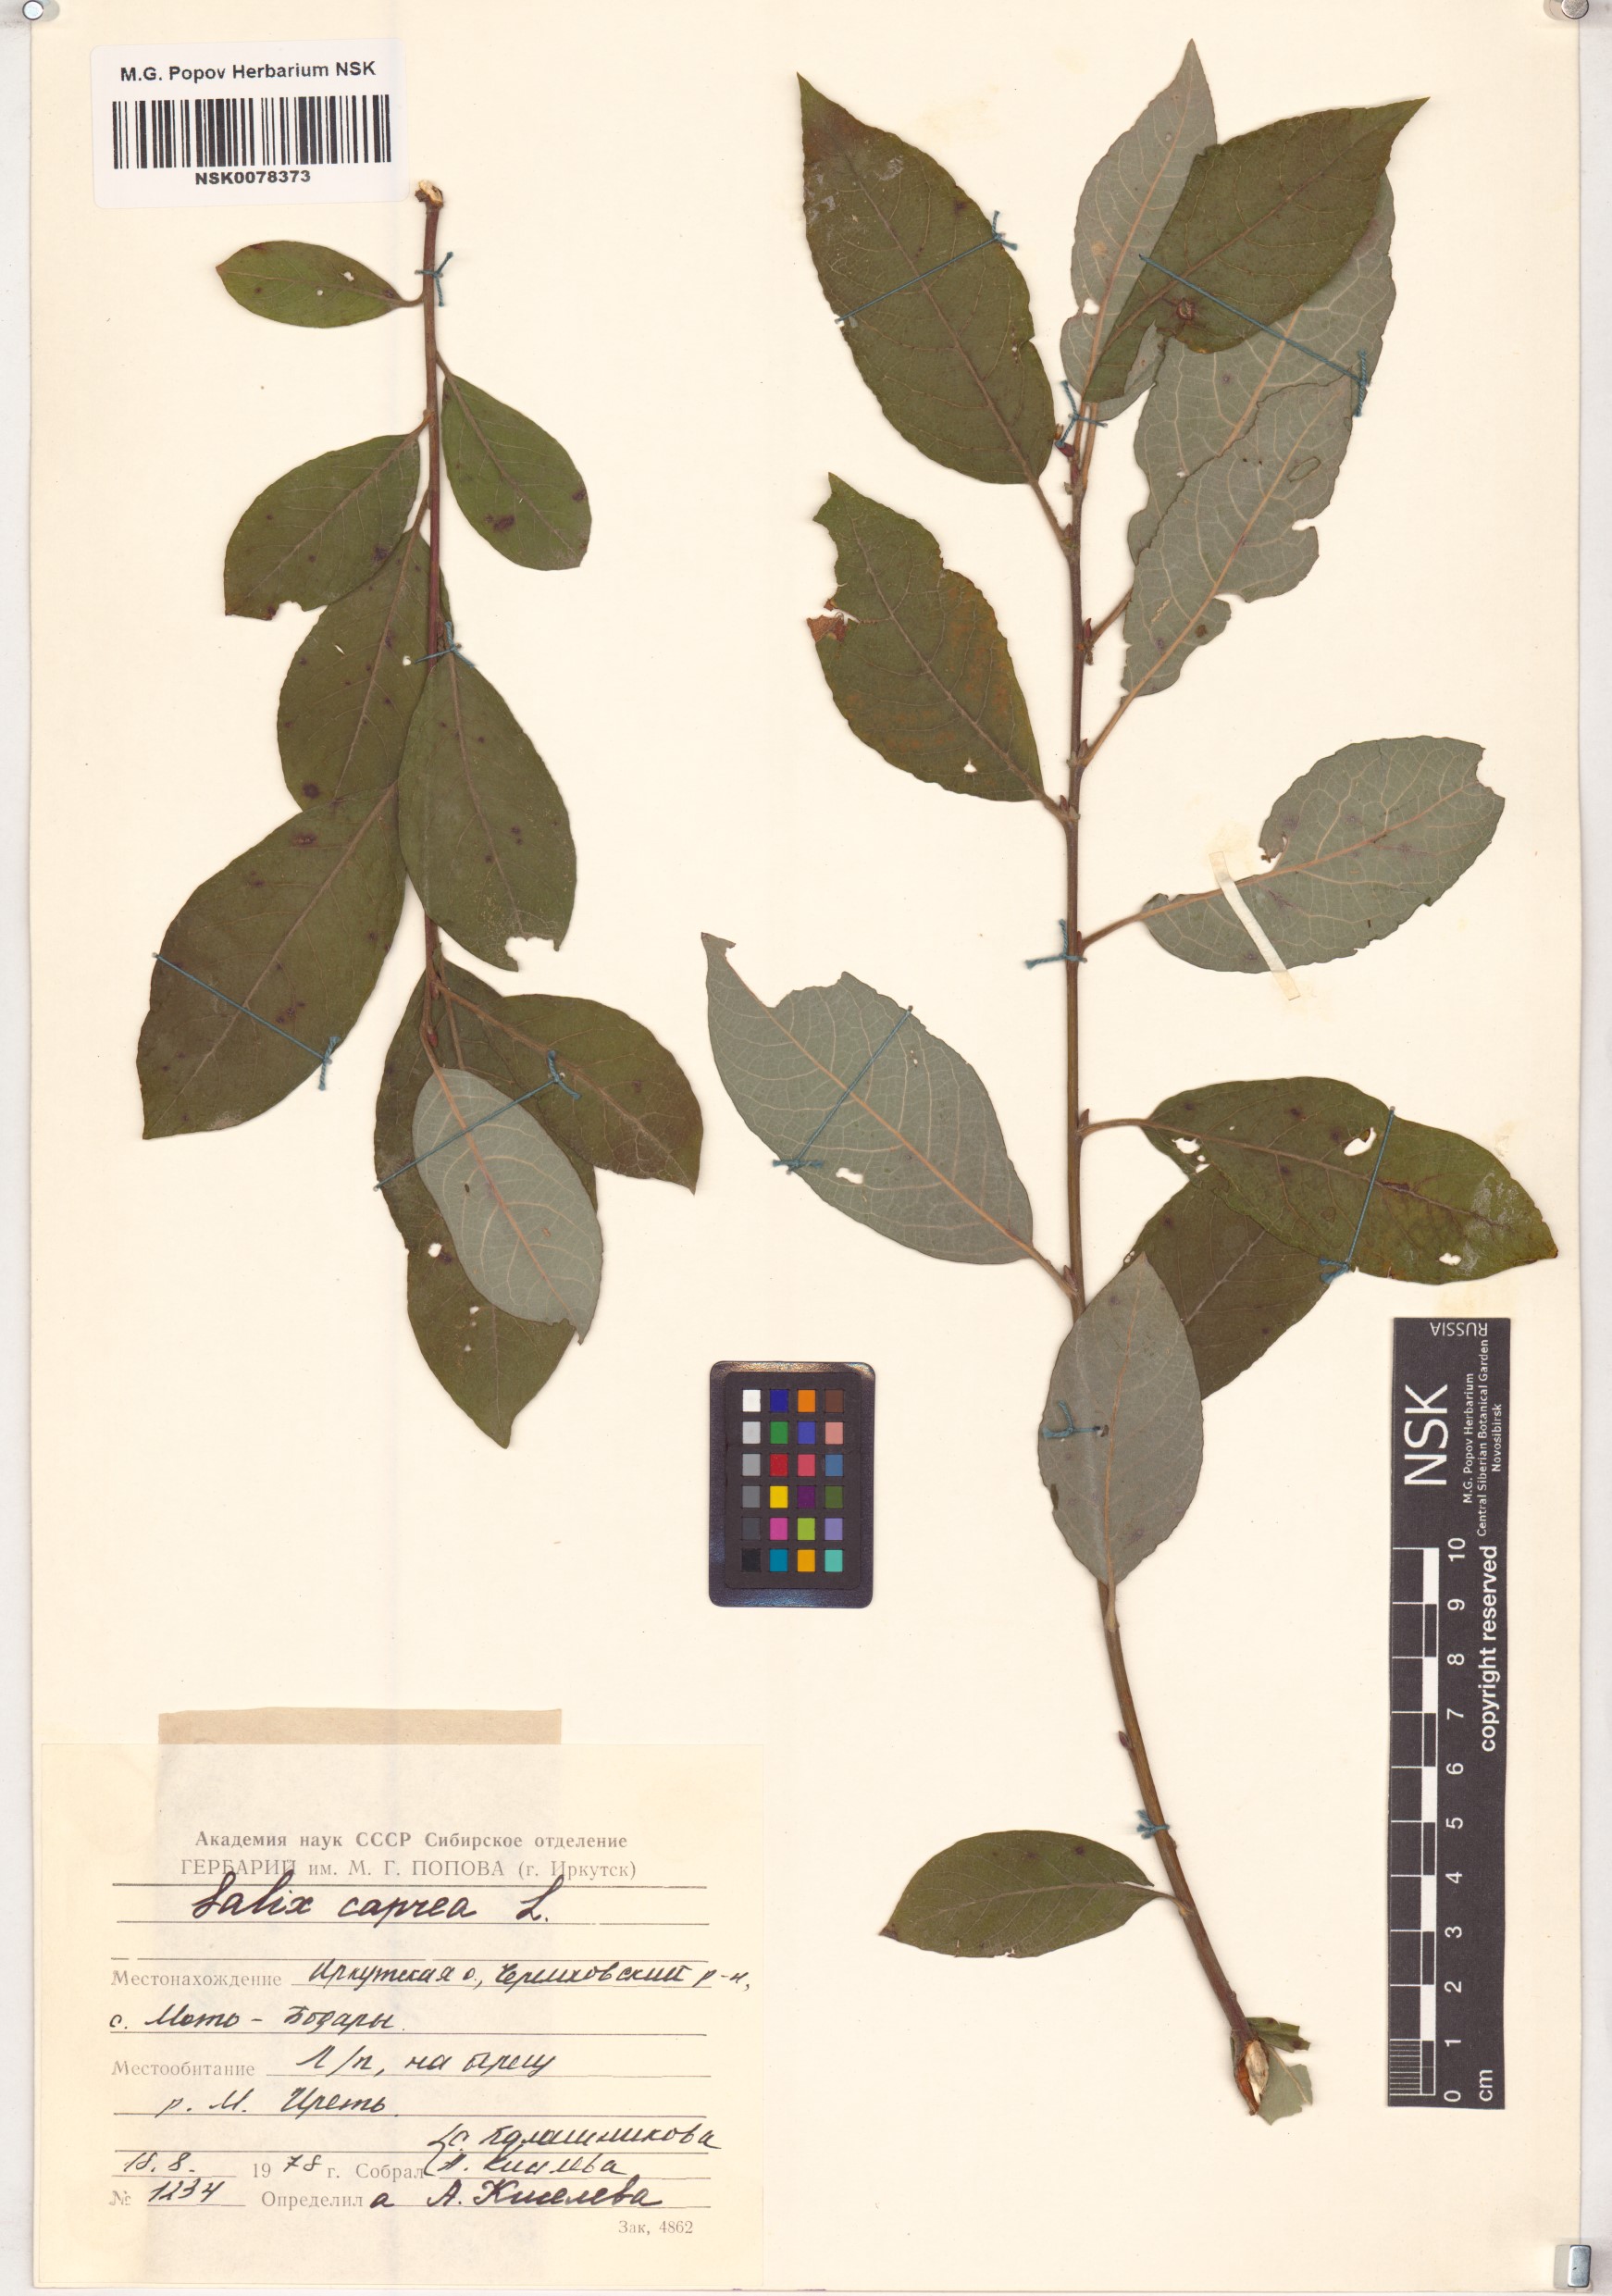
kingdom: Plantae
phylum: Tracheophyta
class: Magnoliopsida
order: Malpighiales
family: Salicaceae
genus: Salix
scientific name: Salix caprea
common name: Goat willow
